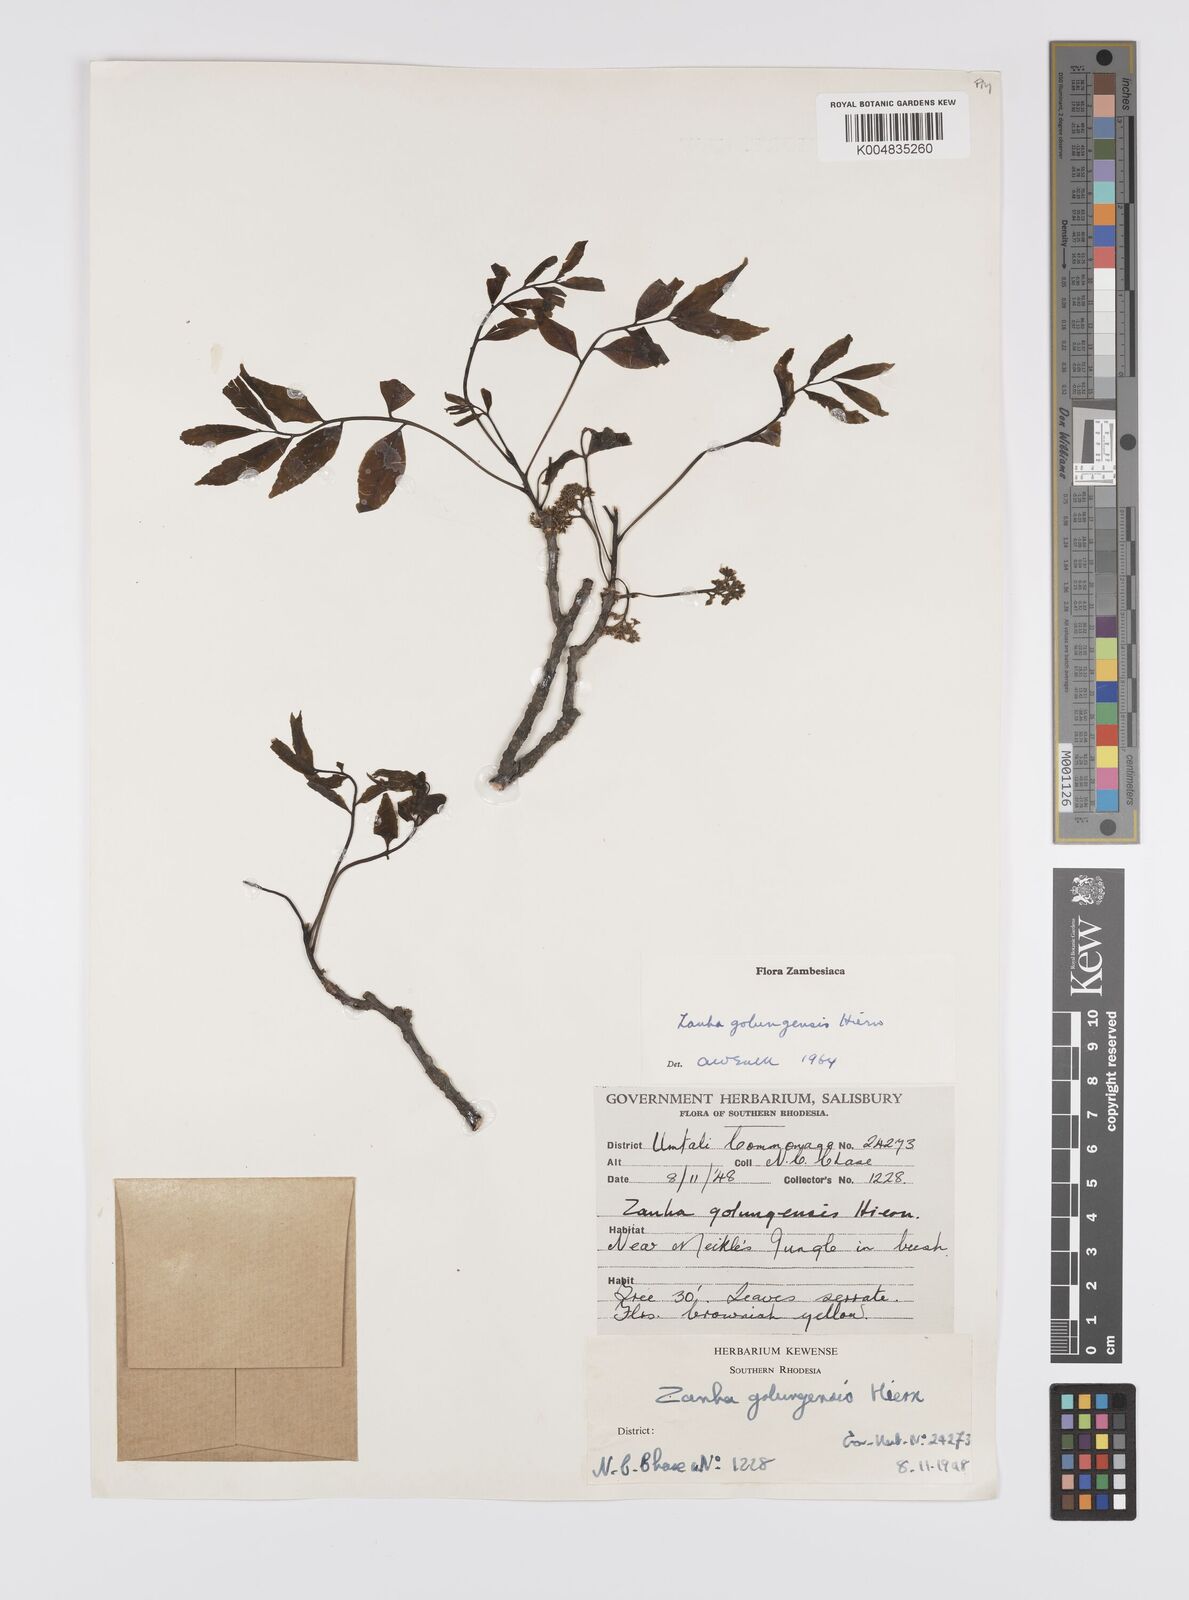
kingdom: Plantae
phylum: Tracheophyta
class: Magnoliopsida
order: Sapindales
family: Sapindaceae
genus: Zanha
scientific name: Zanha golungensis
